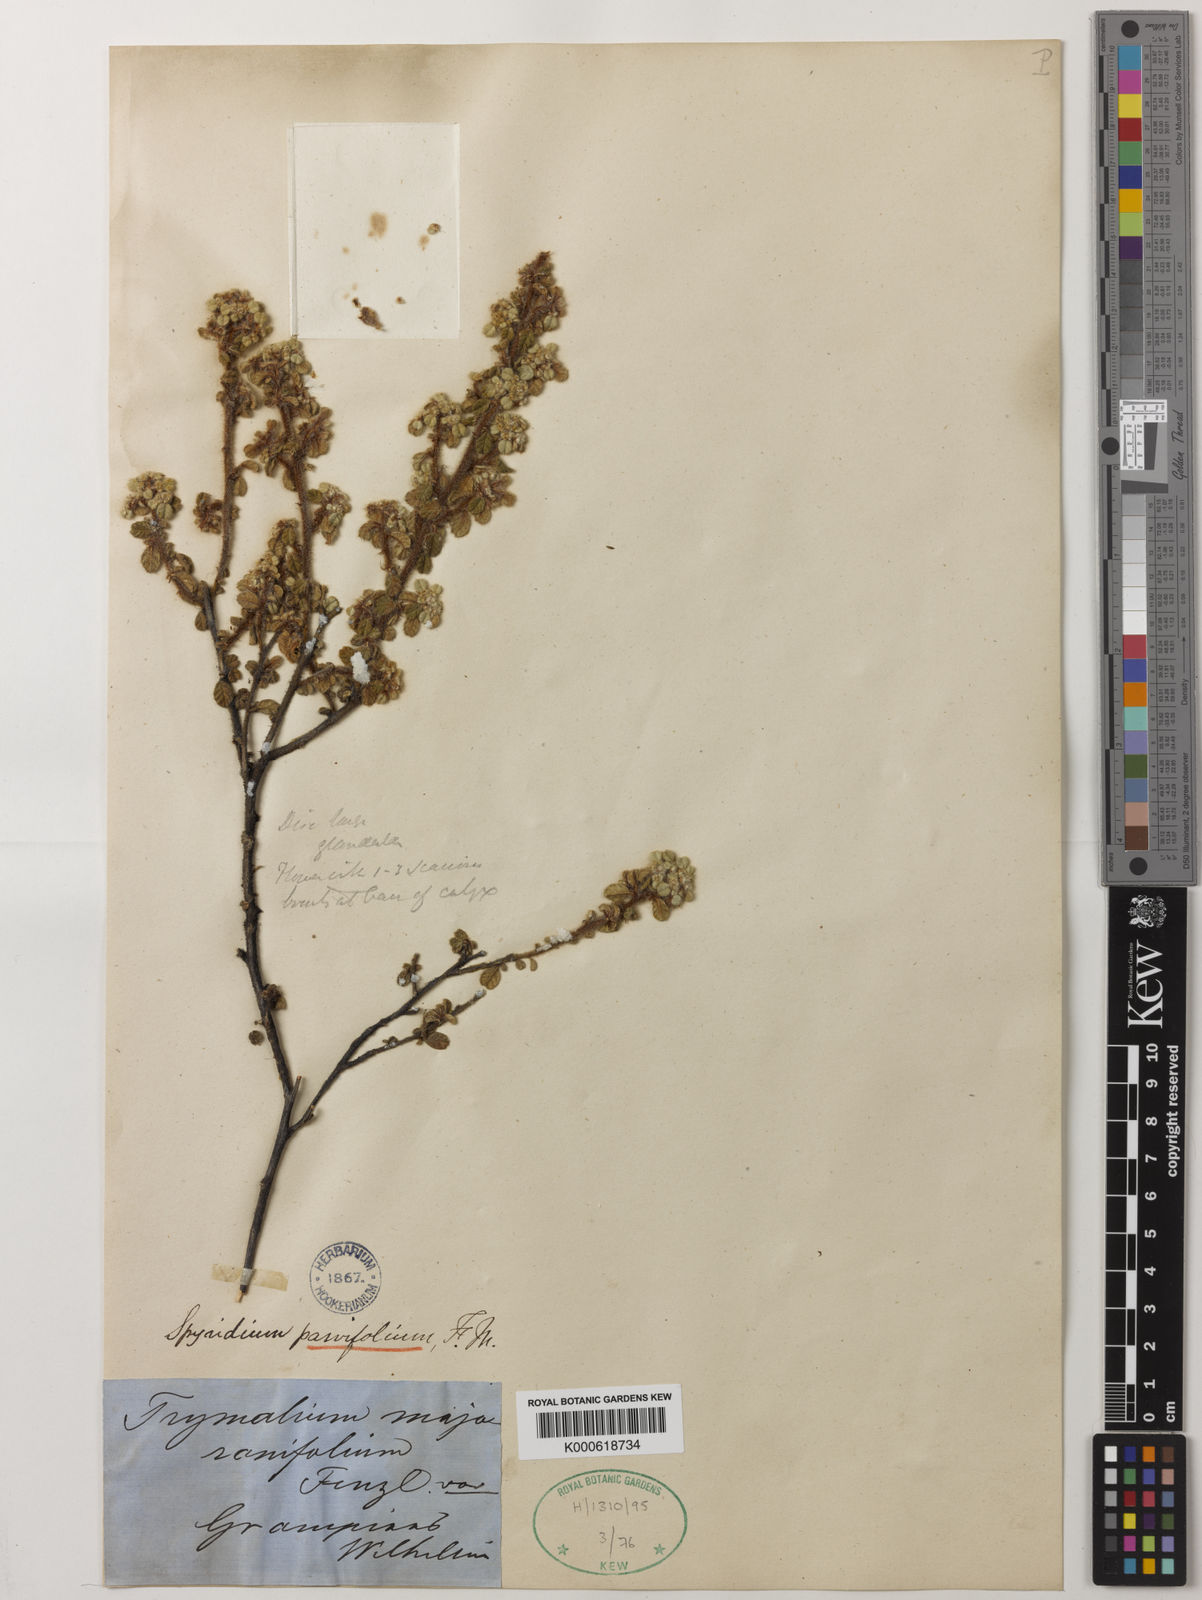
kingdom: Plantae
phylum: Tracheophyta
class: Magnoliopsida
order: Rosales
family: Rhamnaceae
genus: Spyridium
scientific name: Spyridium parvifolium
